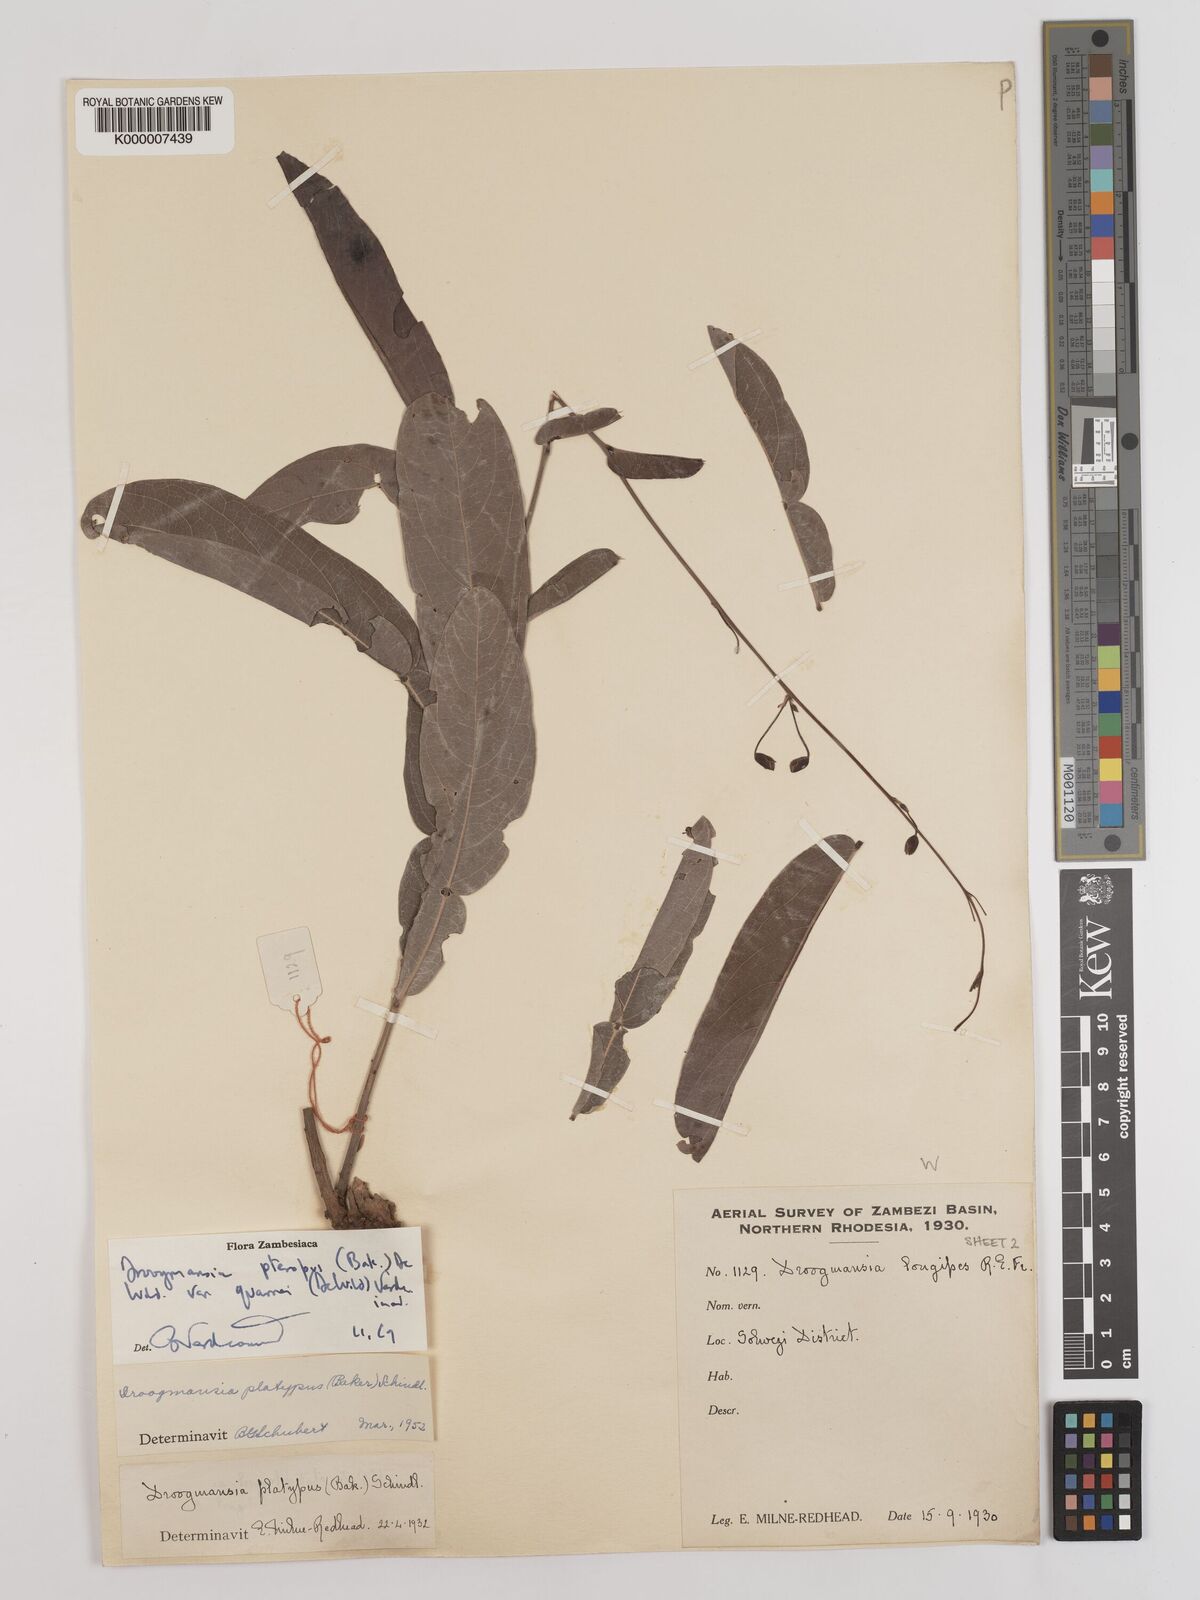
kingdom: Plantae
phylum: Tracheophyta
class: Magnoliopsida
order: Fabales
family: Fabaceae
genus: Droogmansia
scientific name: Droogmansia pteropus
